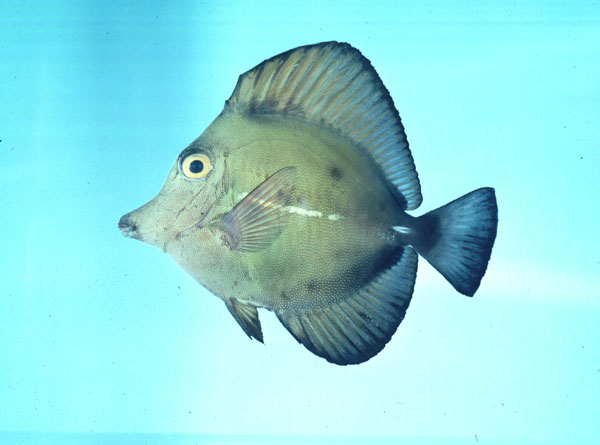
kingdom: Animalia
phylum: Chordata
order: Perciformes
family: Acanthuridae
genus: Zebrasoma
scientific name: Zebrasoma scopas
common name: Twotone tang
